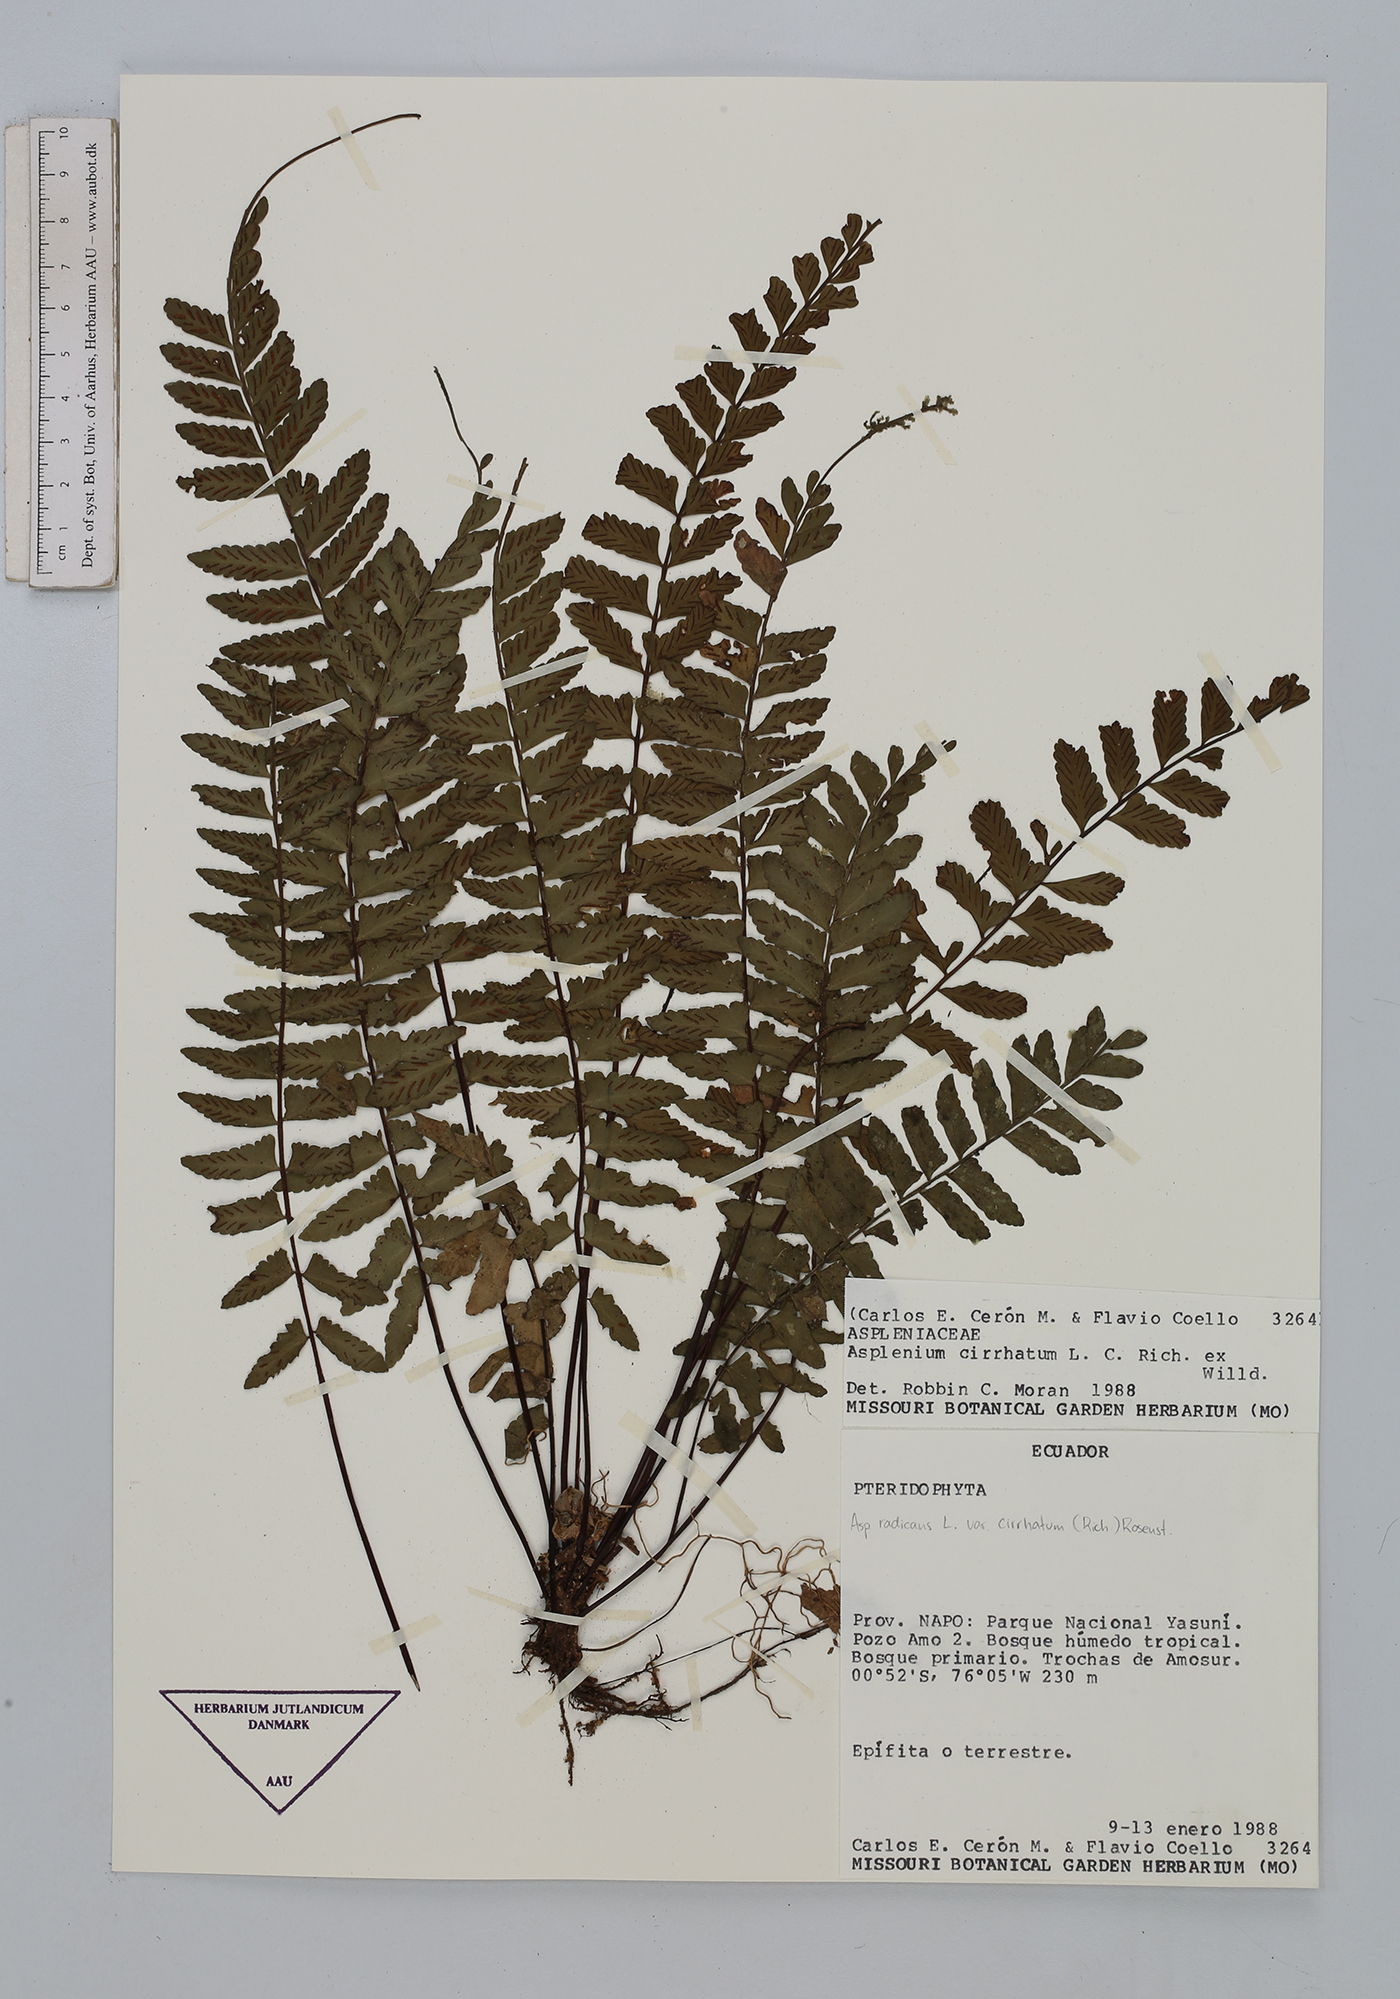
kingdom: Plantae
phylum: Tracheophyta
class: Polypodiopsida
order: Polypodiales
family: Aspleniaceae
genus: Asplenium
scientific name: Asplenium cirrhatum
